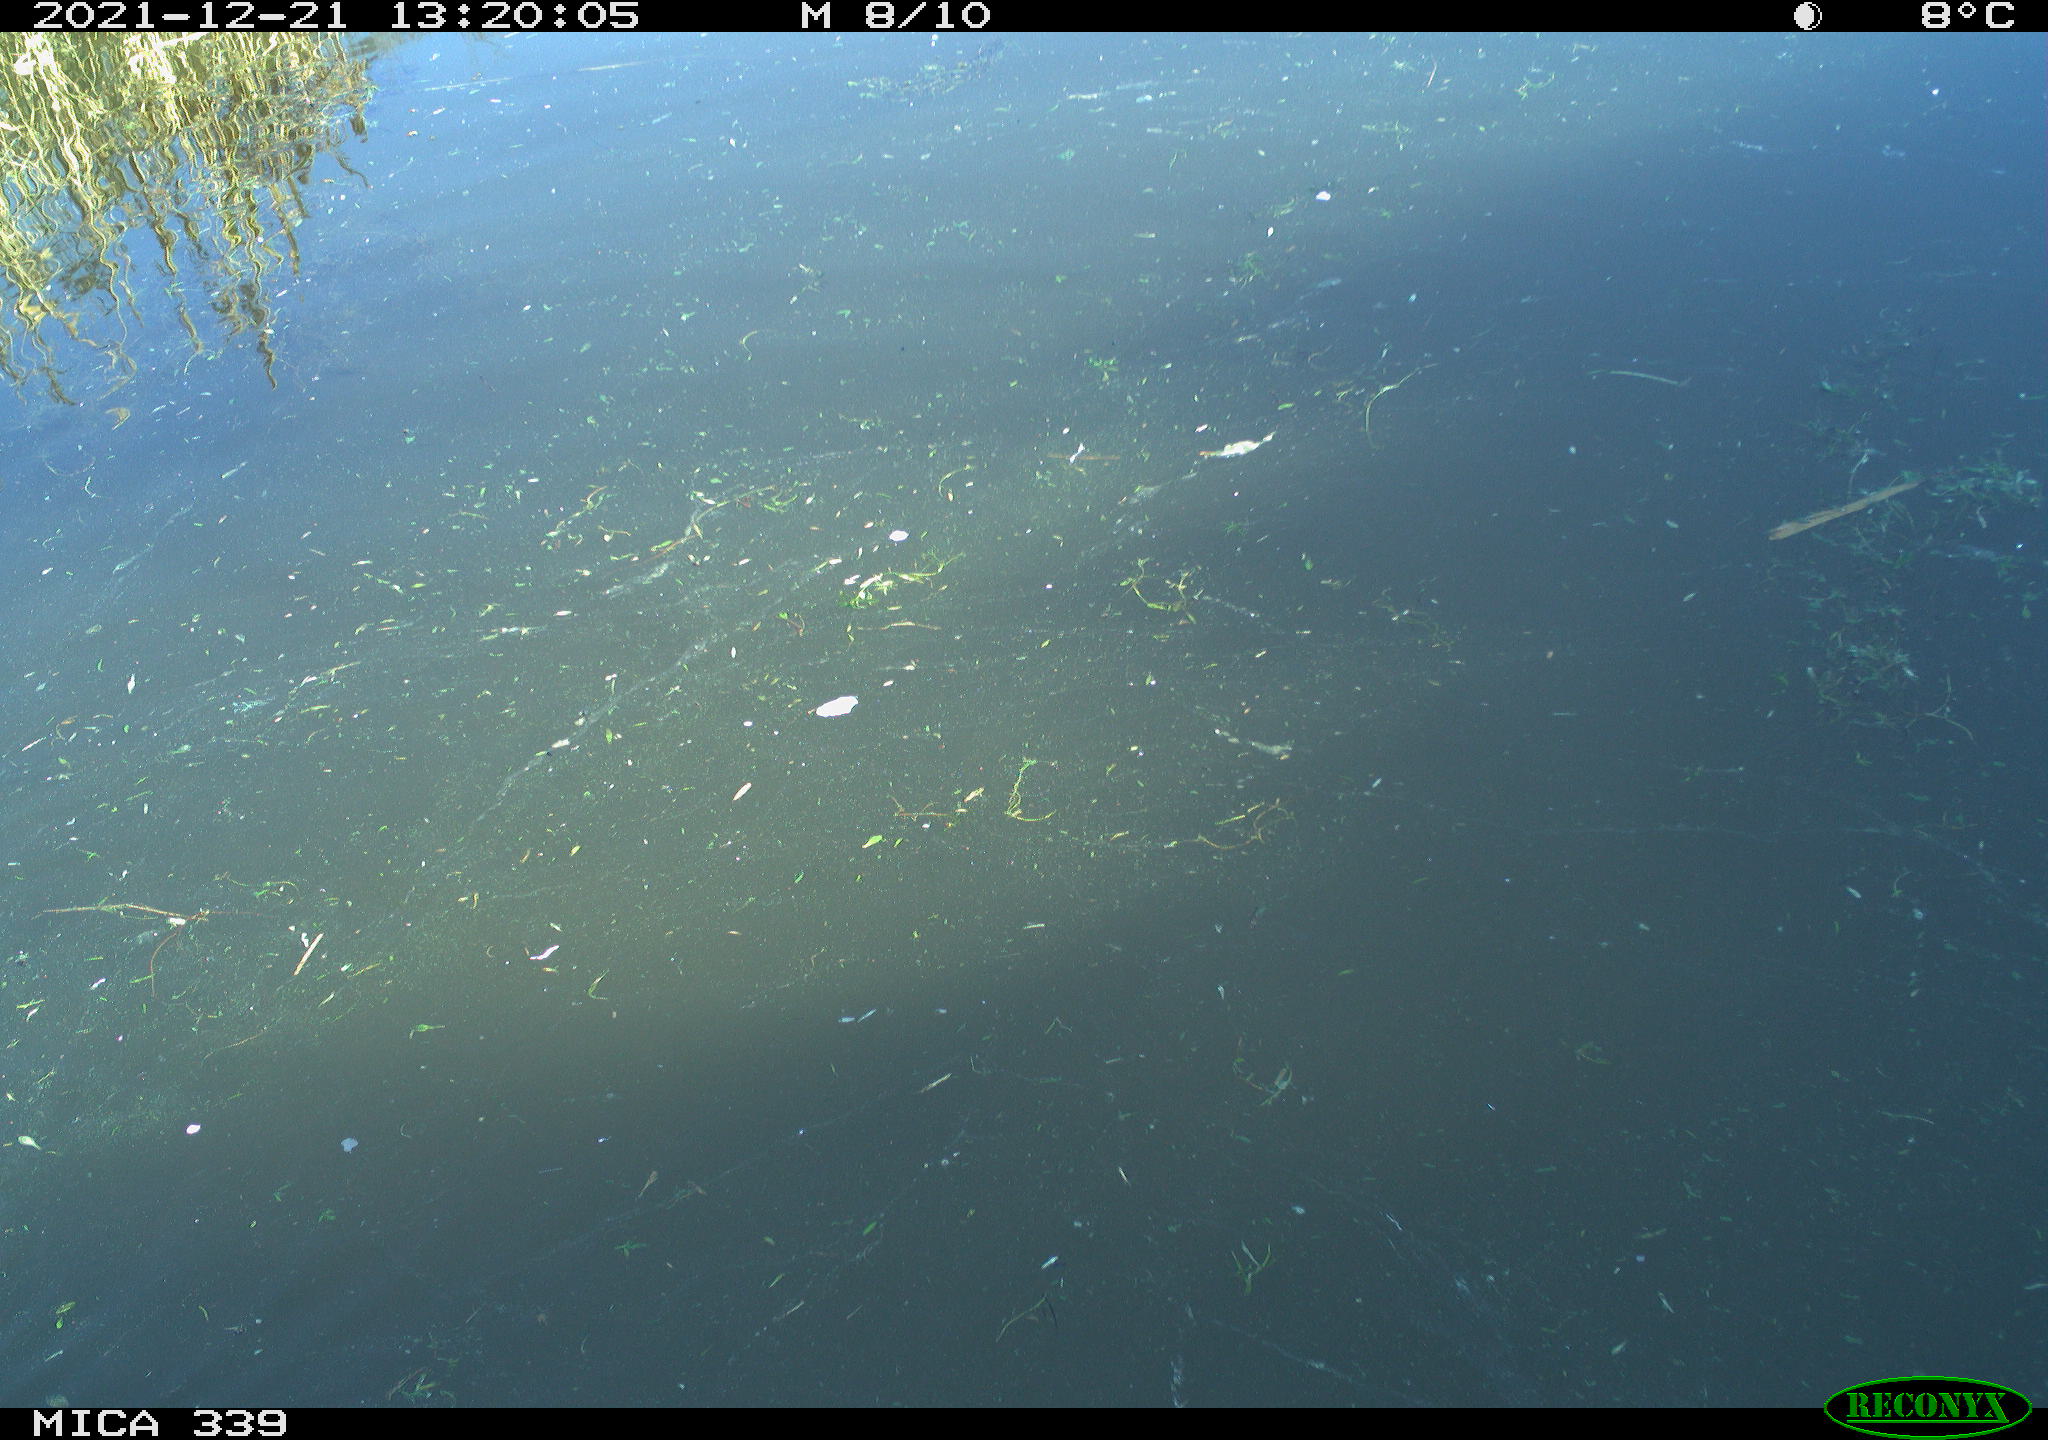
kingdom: Animalia
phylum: Chordata
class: Aves
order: Gruiformes
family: Rallidae
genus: Gallinula
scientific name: Gallinula chloropus
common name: Common moorhen
